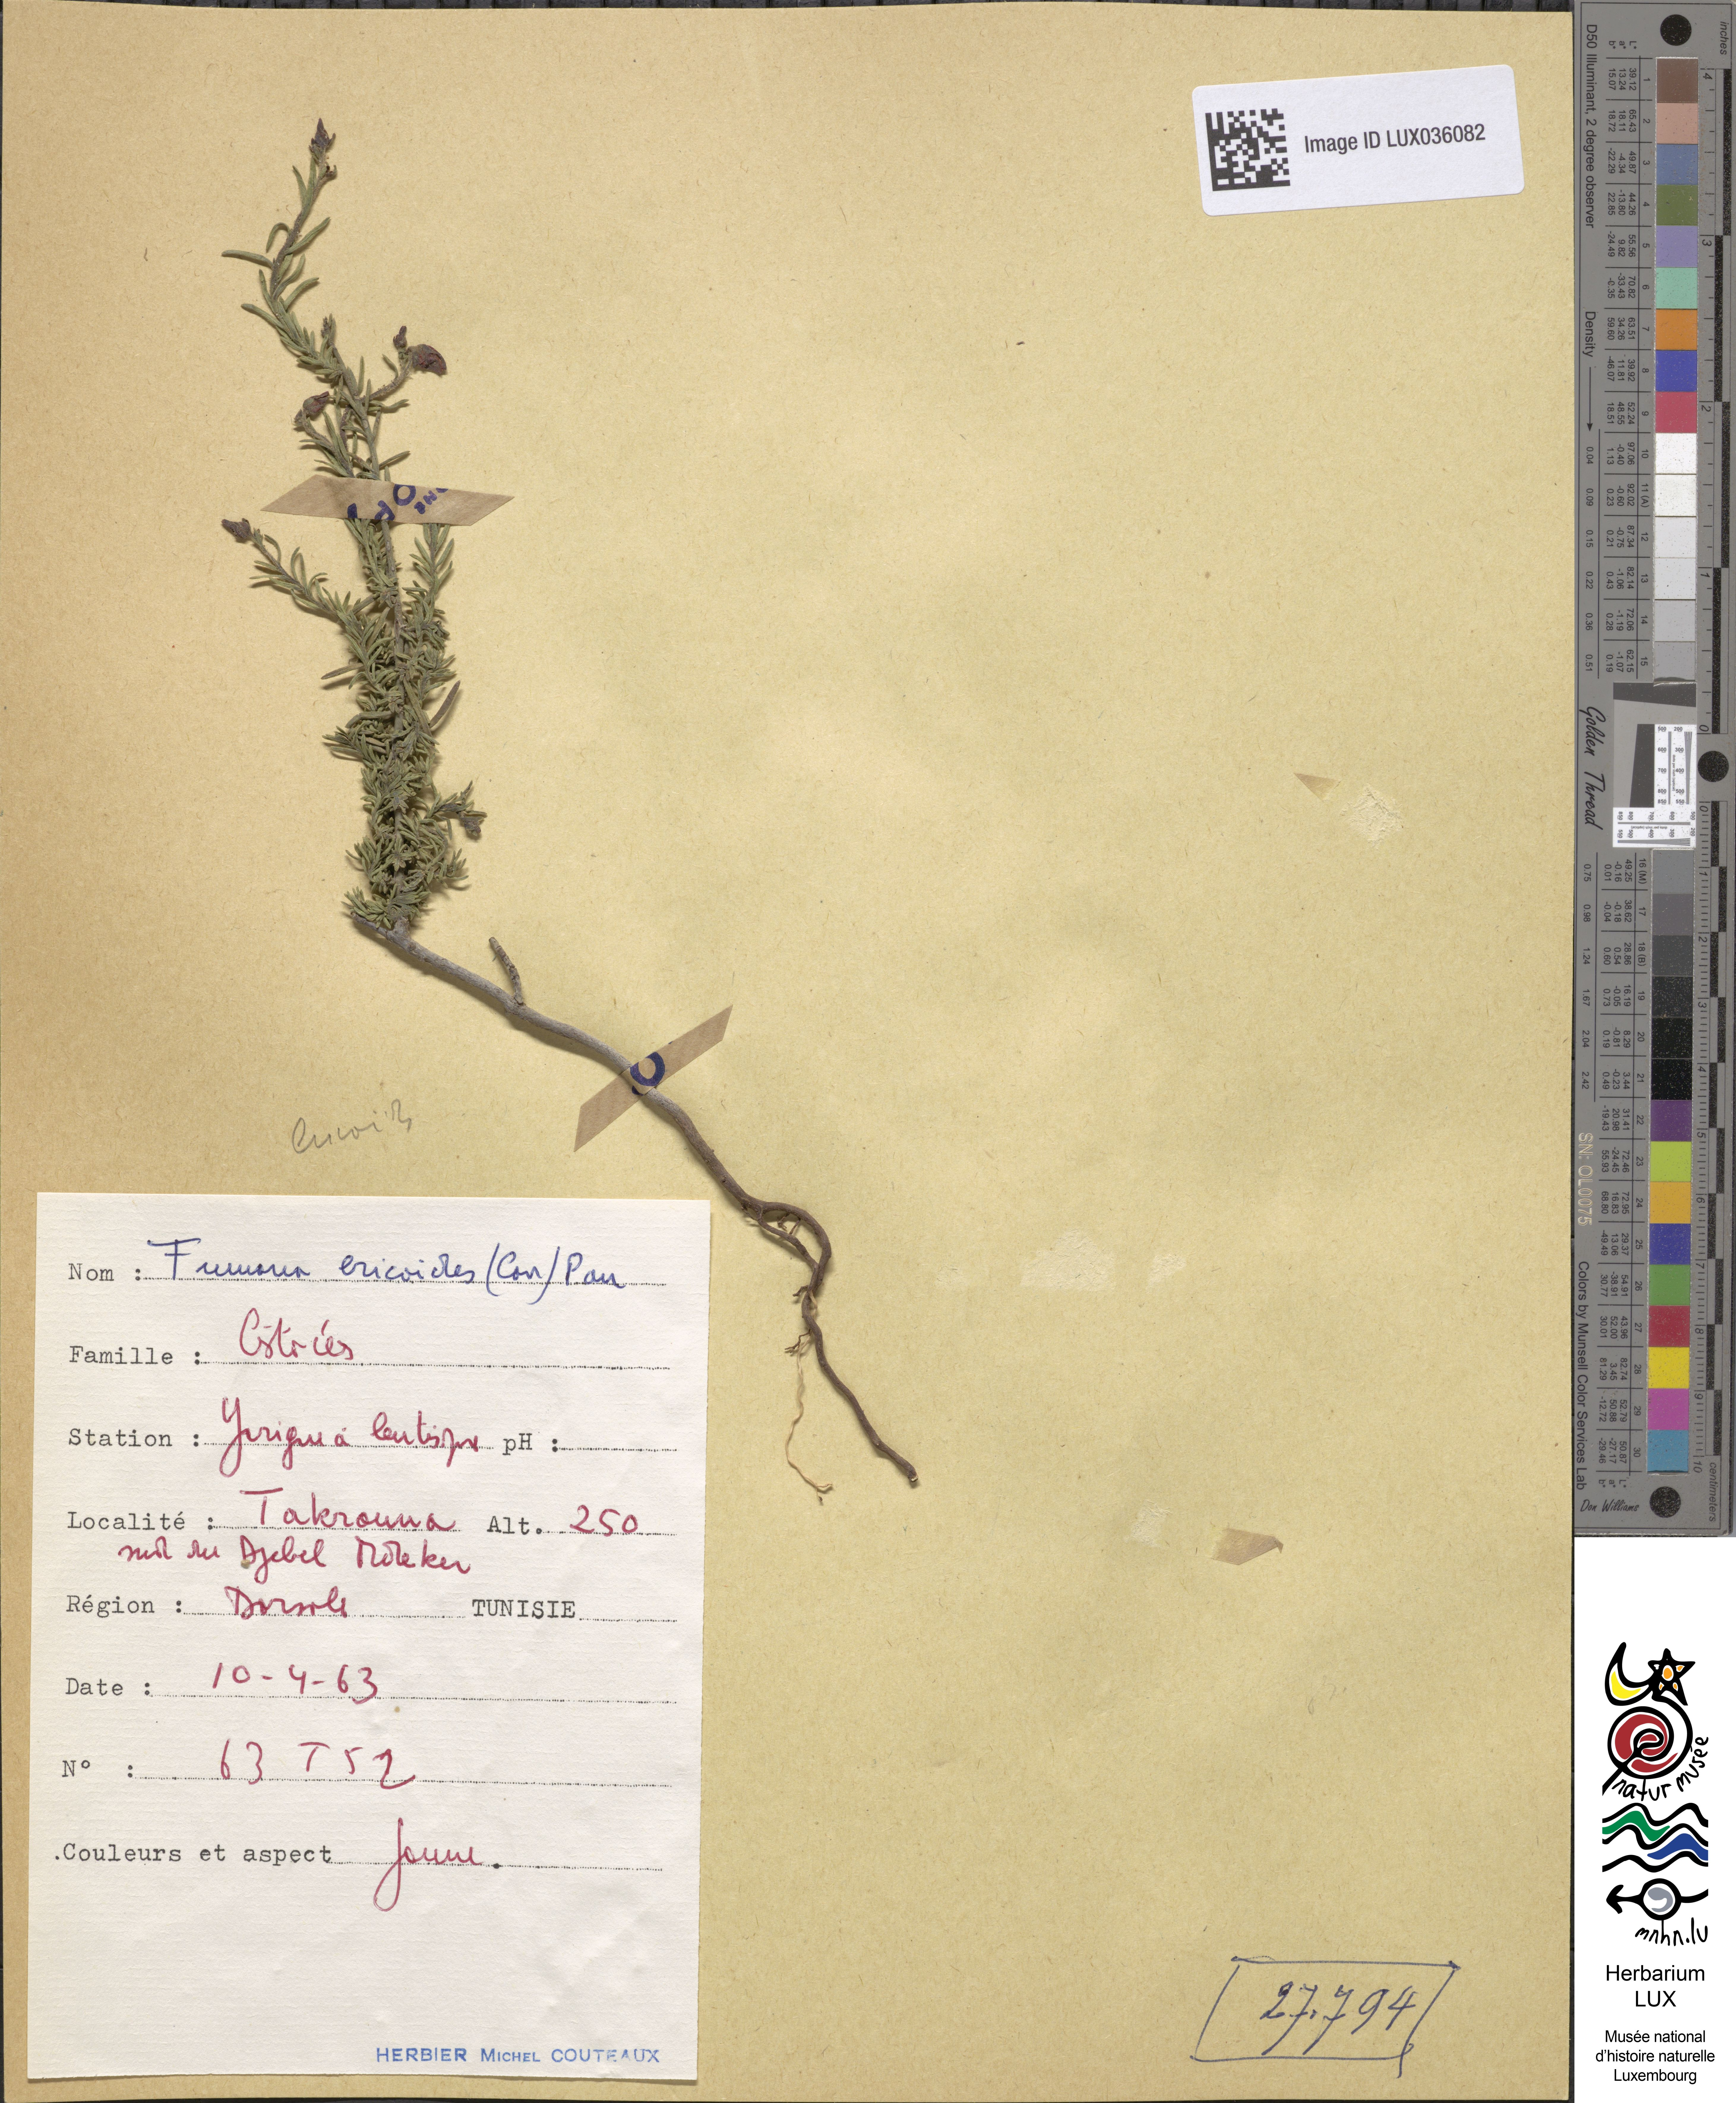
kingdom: Plantae
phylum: Tracheophyta
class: Magnoliopsida
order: Malvales
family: Cistaceae
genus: Fumana
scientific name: Fumana ericoides
